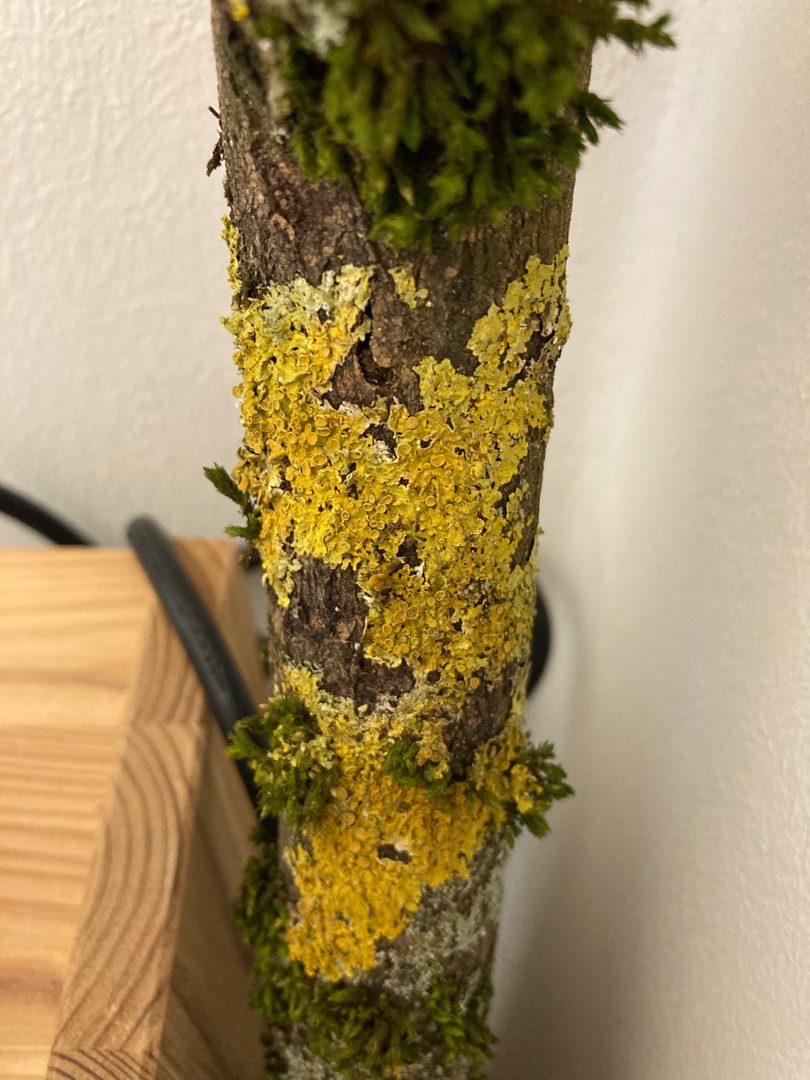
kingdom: Fungi
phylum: Ascomycota
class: Lecanoromycetes
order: Teloschistales
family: Teloschistaceae
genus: Xanthoria
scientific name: Xanthoria parietina
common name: Almindelig væggelav
